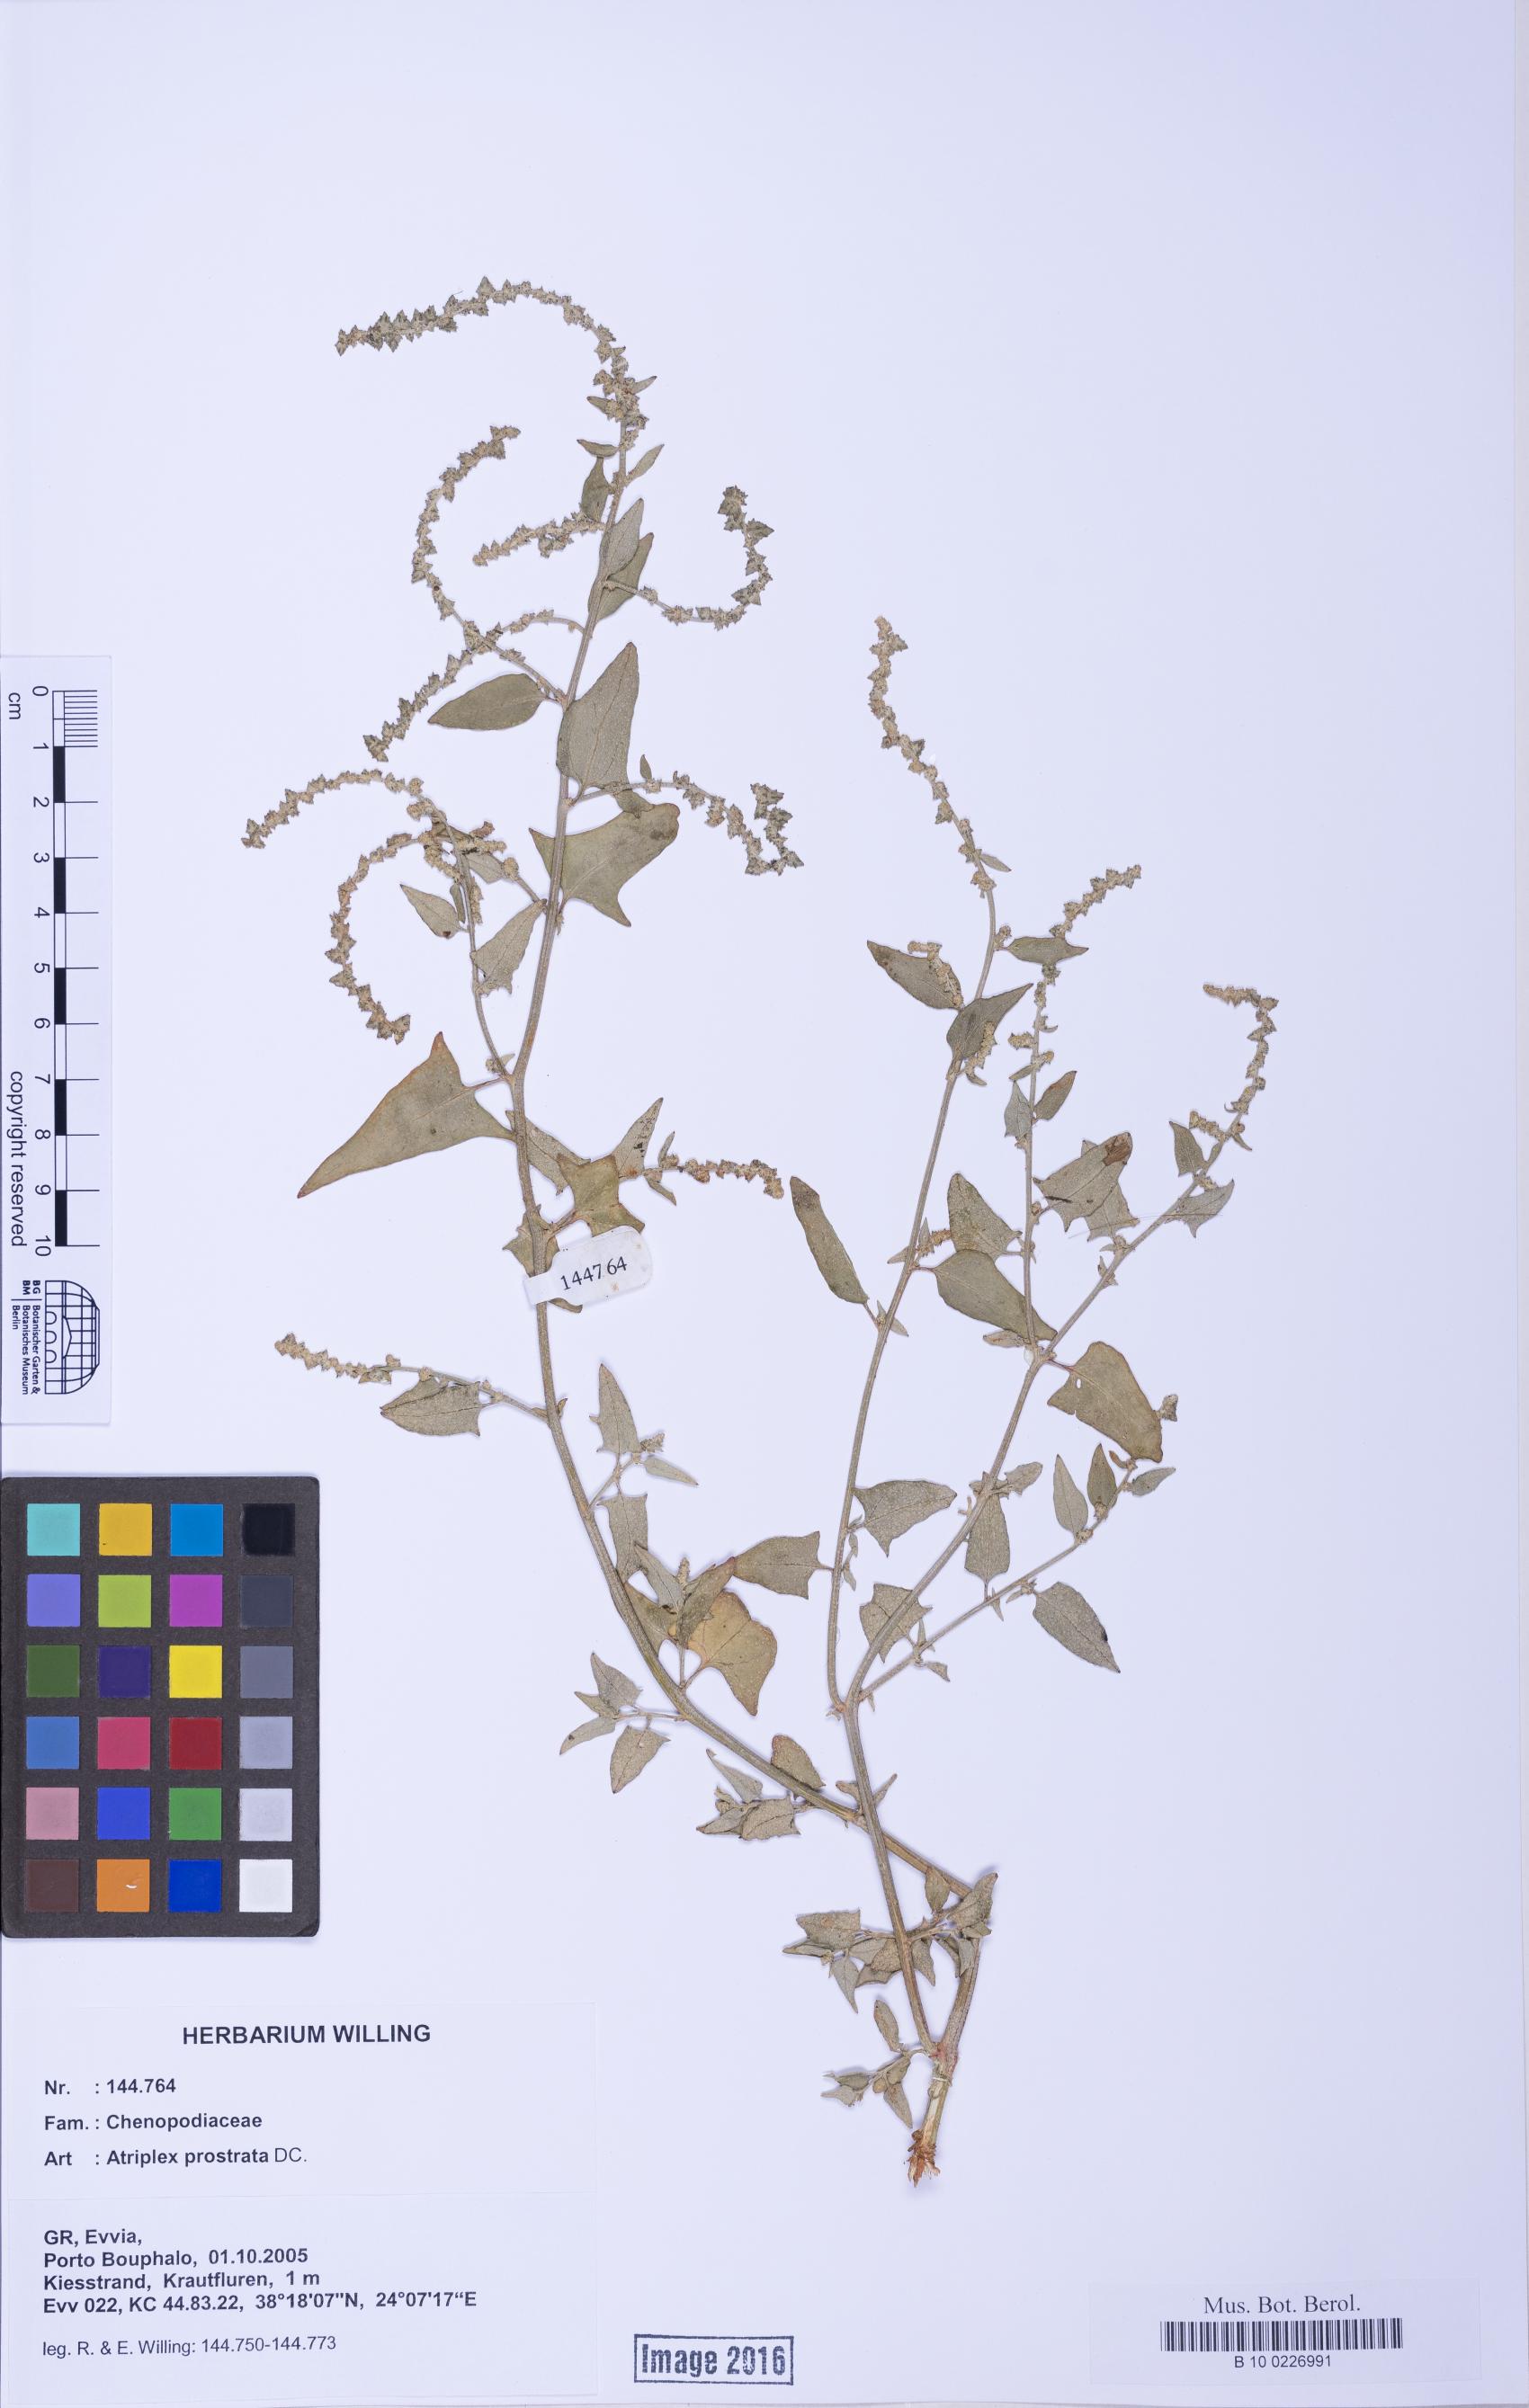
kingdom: Plantae
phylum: Tracheophyta
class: Magnoliopsida
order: Caryophyllales
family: Amaranthaceae
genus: Atriplex
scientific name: Atriplex prostrata
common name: Spear-leaved orache
